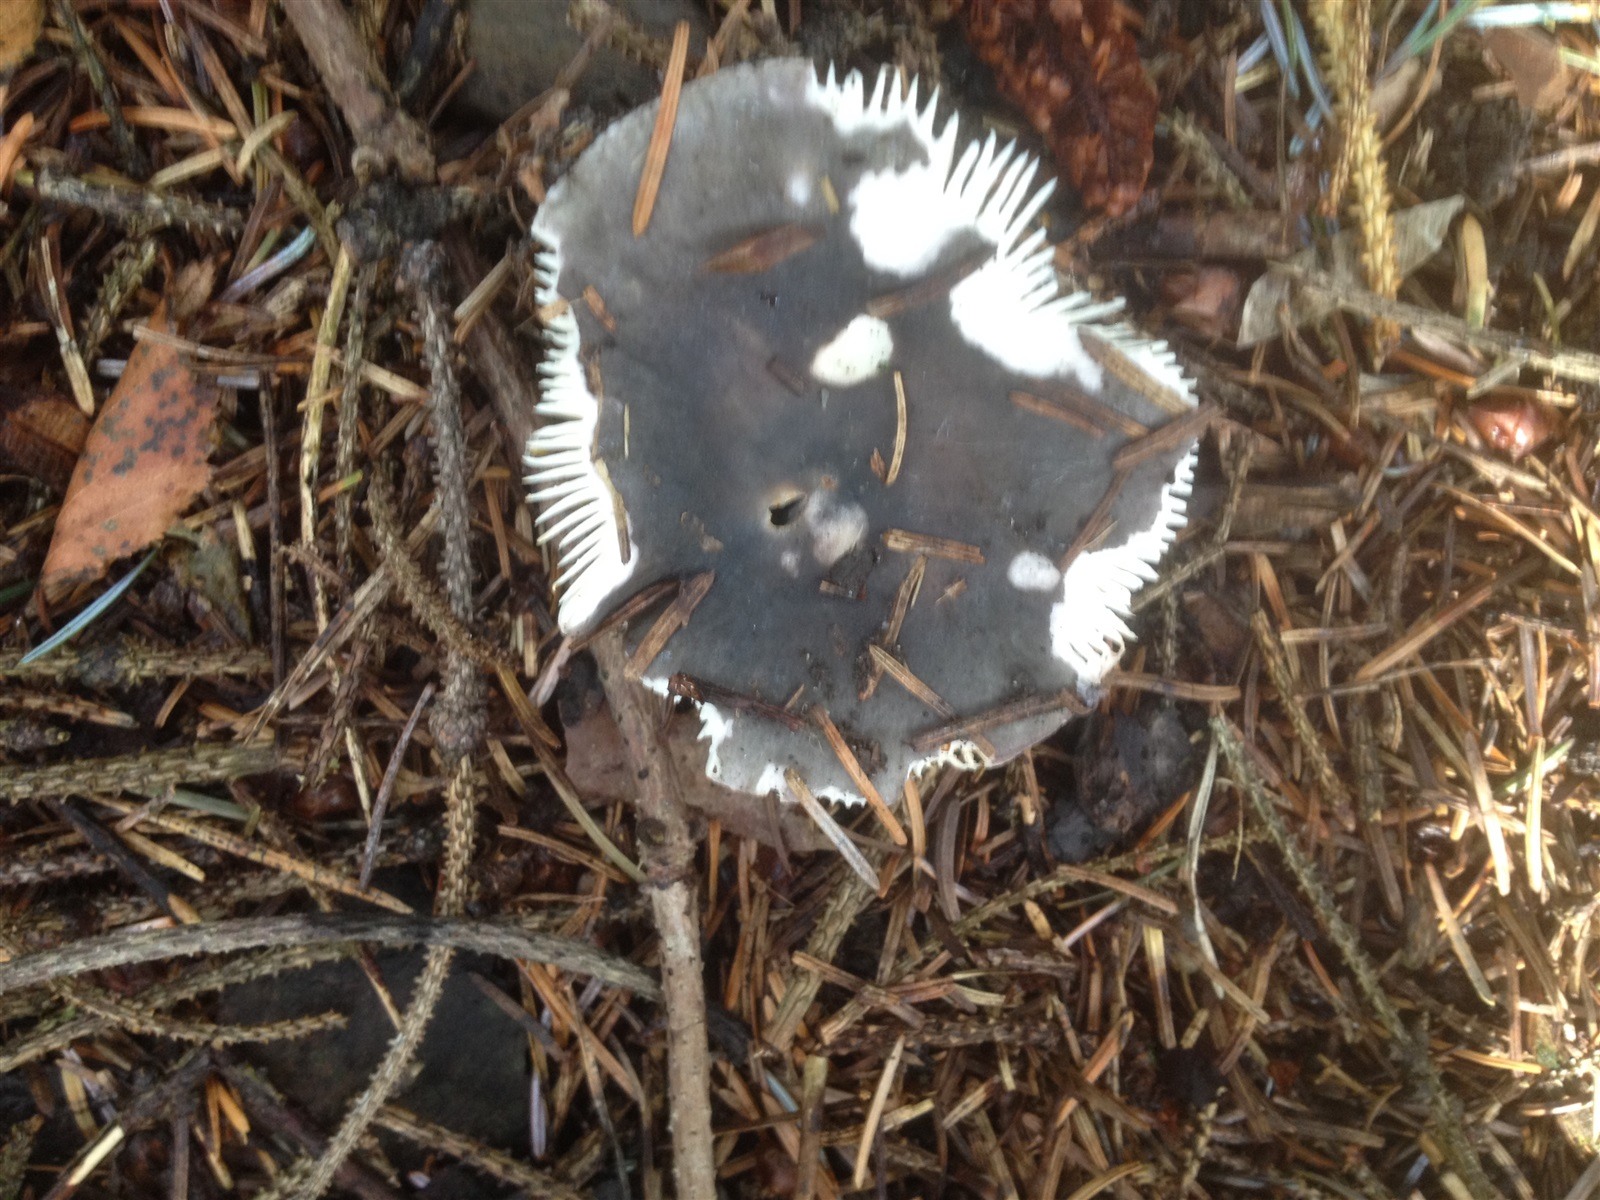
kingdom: Fungi
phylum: Basidiomycota
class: Agaricomycetes
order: Russulales
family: Russulaceae
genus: Russula
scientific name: Russula atroglauca
